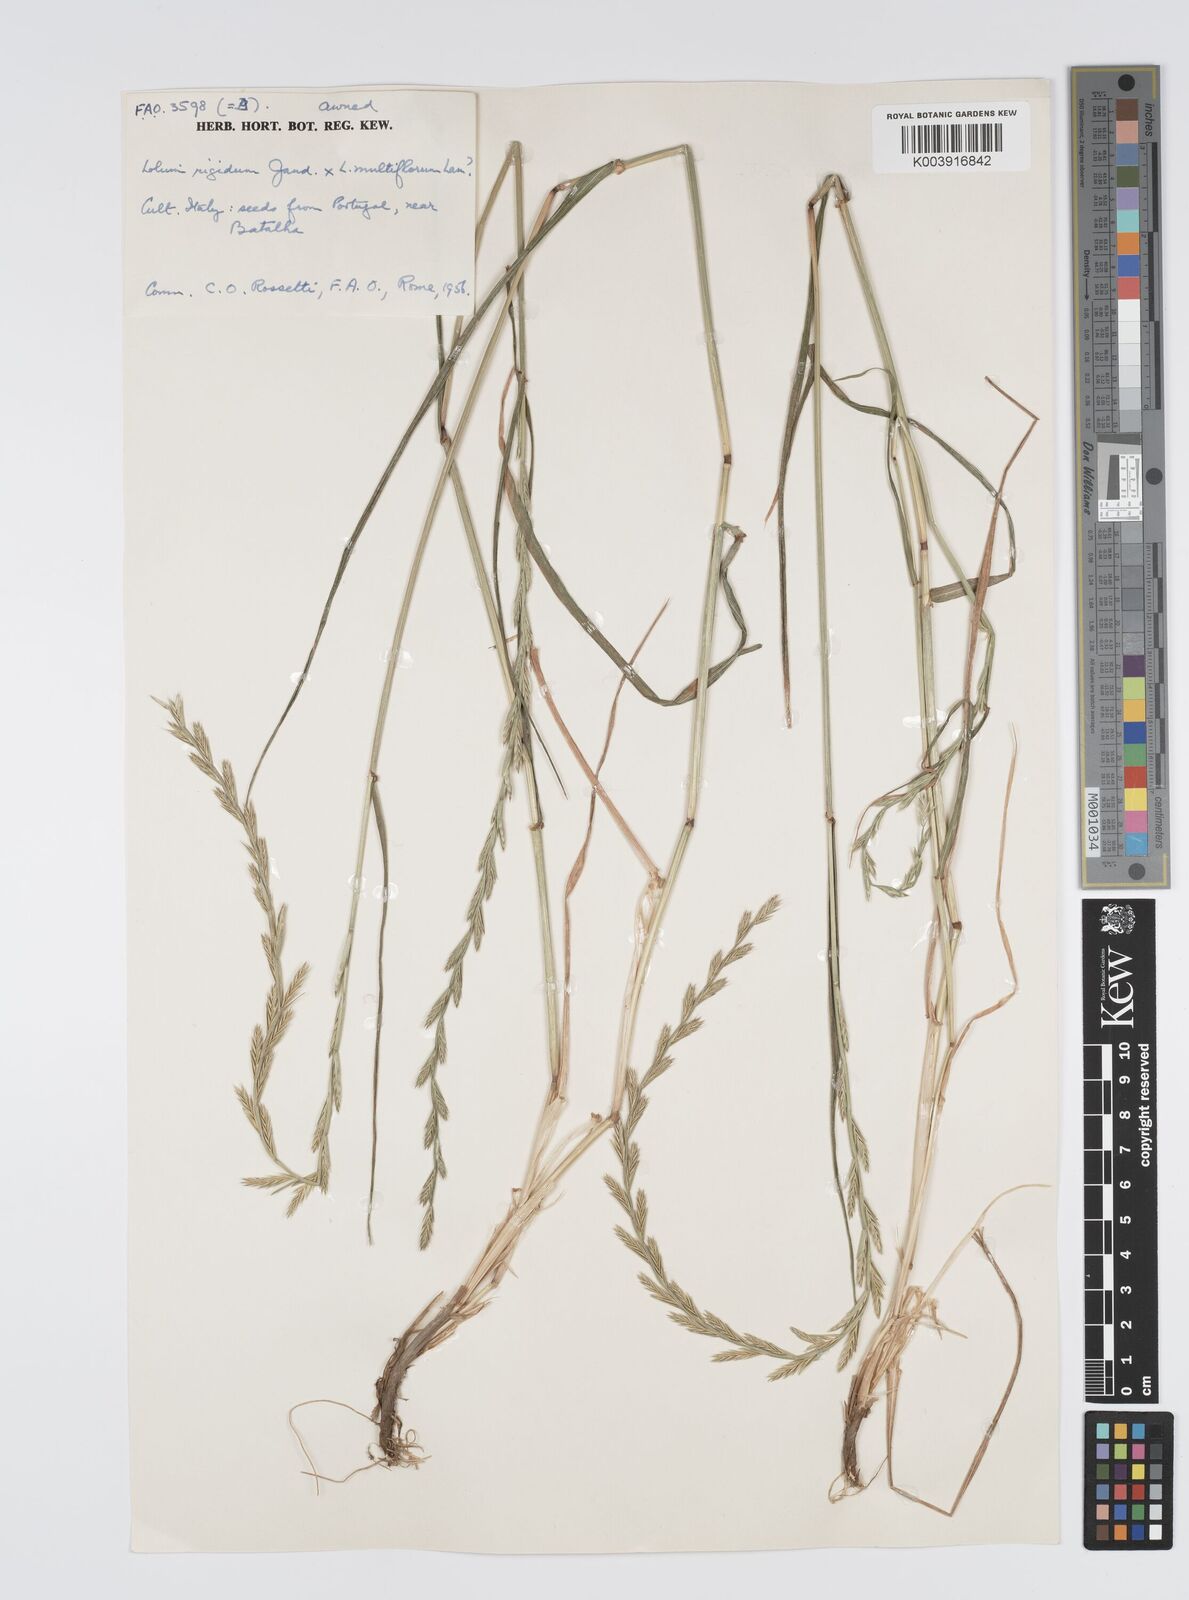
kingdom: Plantae
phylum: Tracheophyta
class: Liliopsida
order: Poales
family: Poaceae
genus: Lolium
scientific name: Lolium multiflorum
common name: Annual ryegrass
